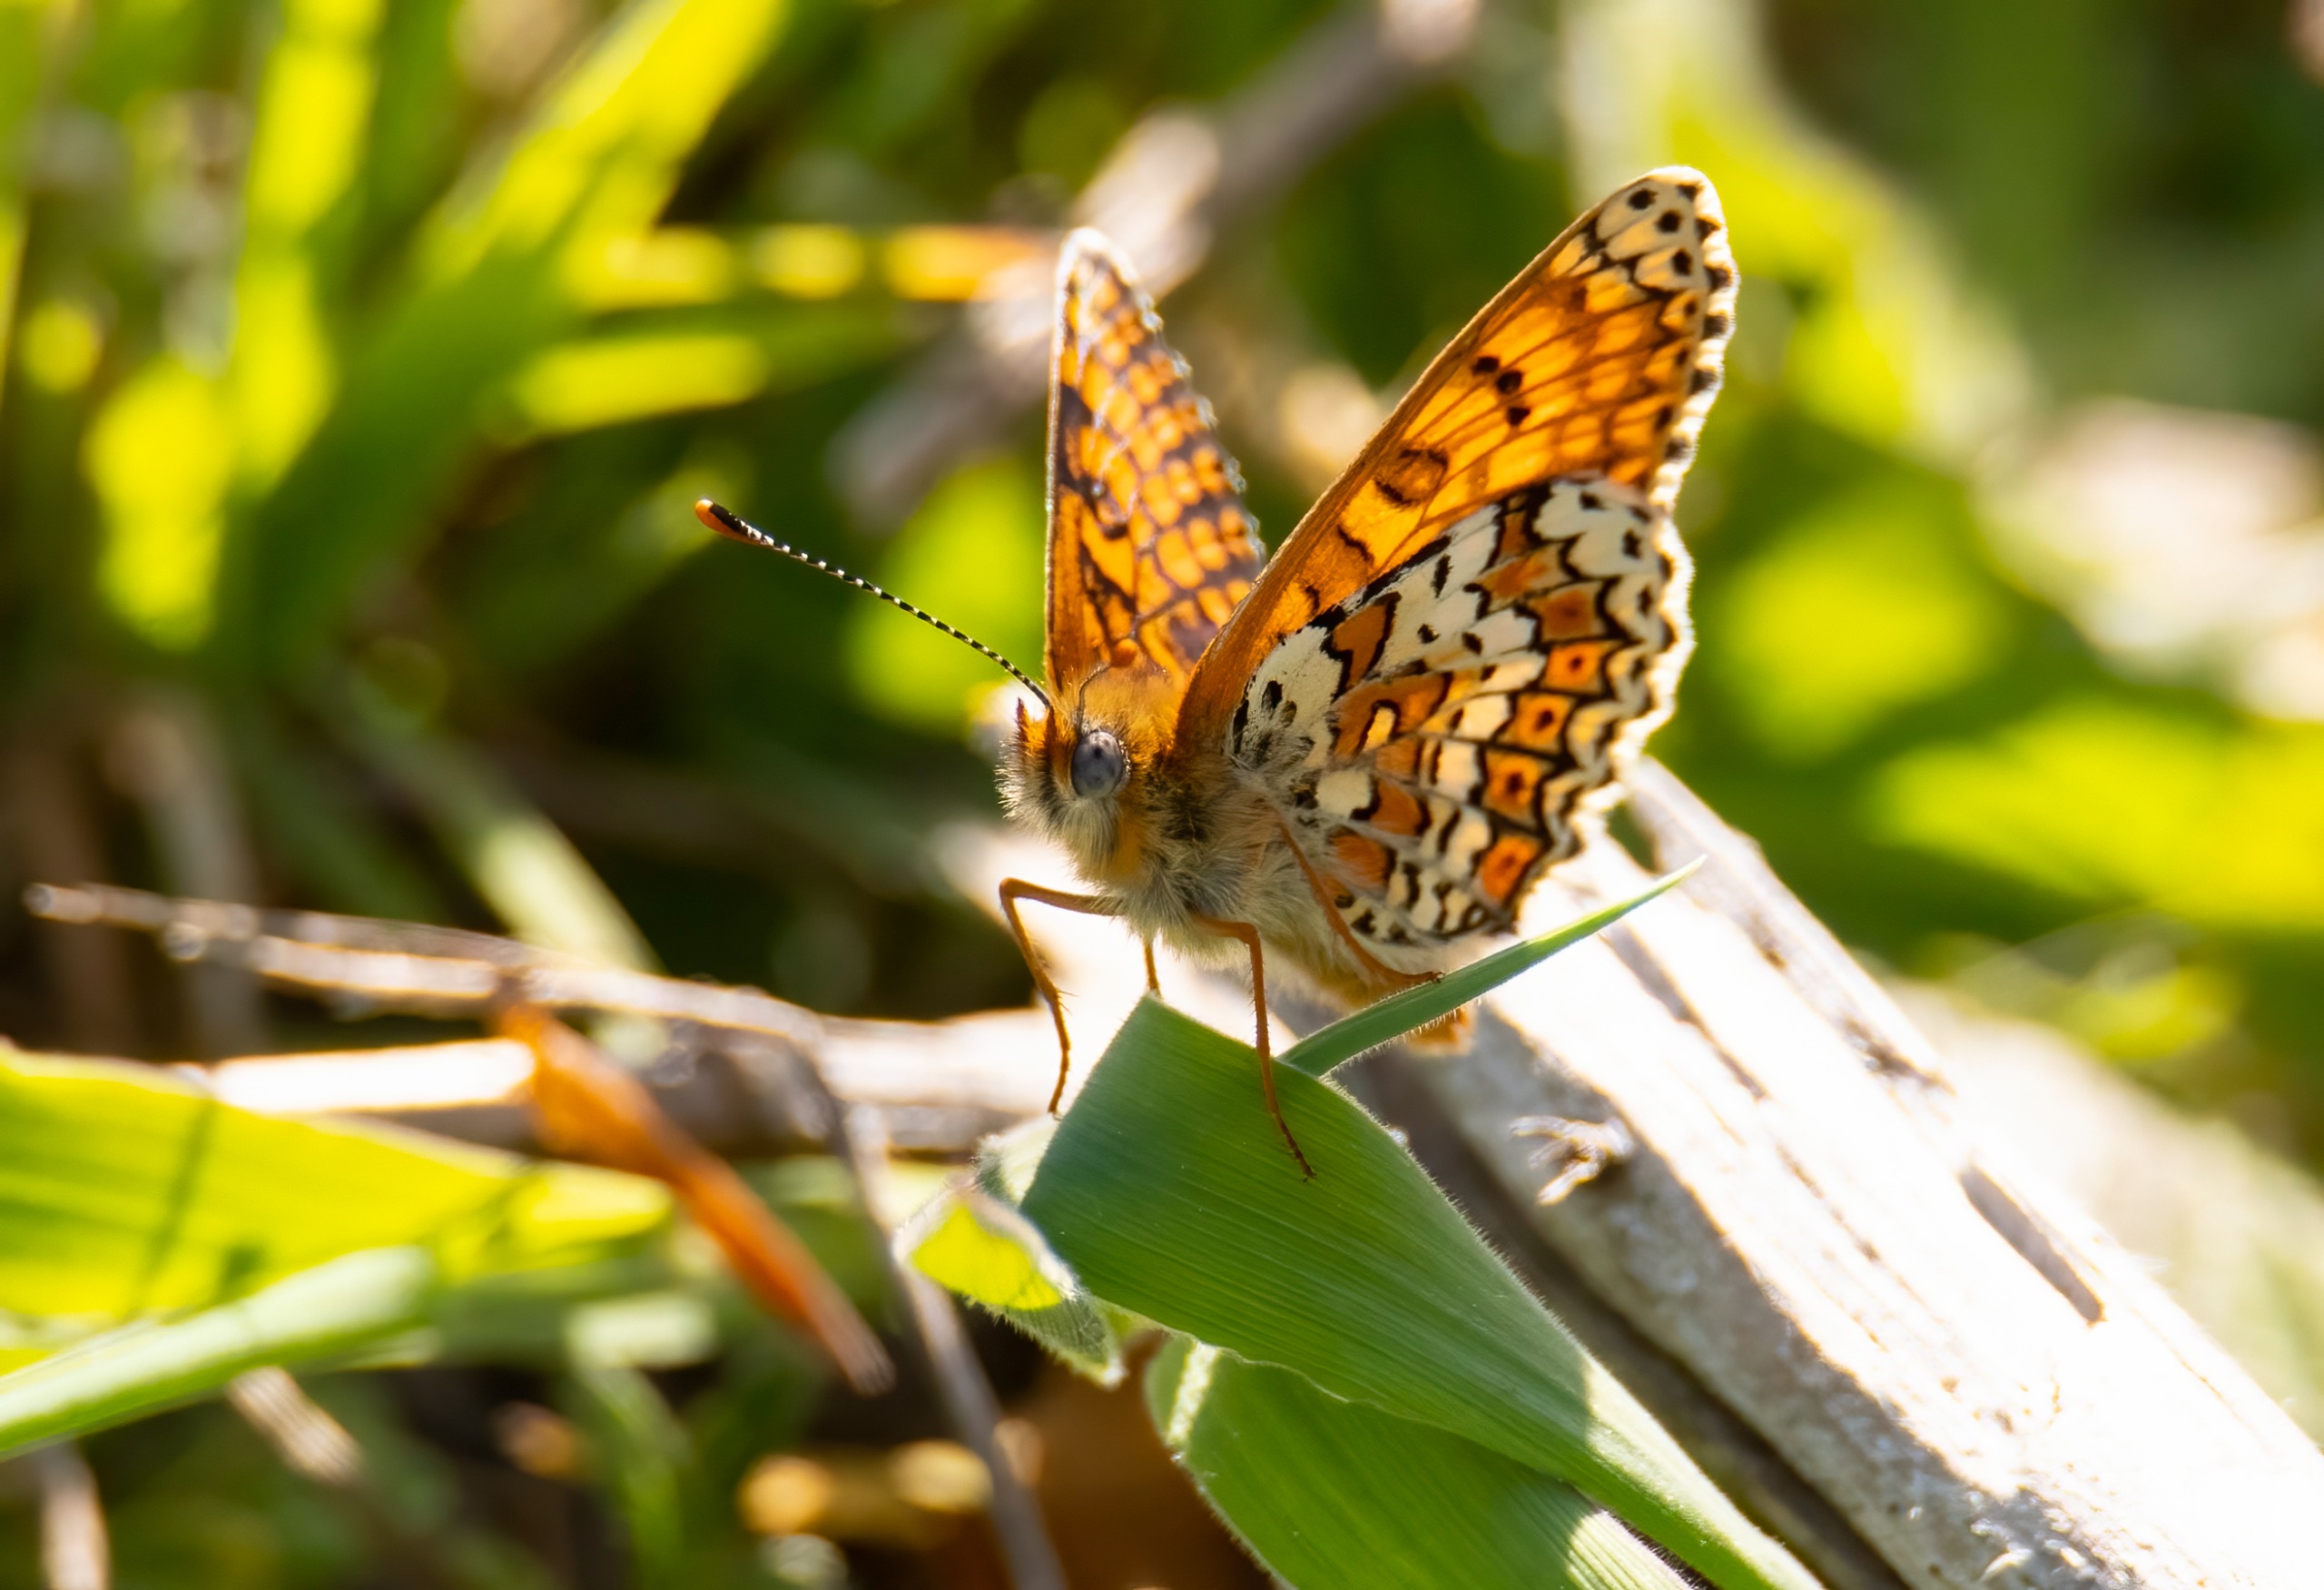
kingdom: Animalia
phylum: Arthropoda
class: Insecta
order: Lepidoptera
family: Nymphalidae
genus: Melitaea
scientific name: Melitaea cinxia
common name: Okkergul pletvinge
